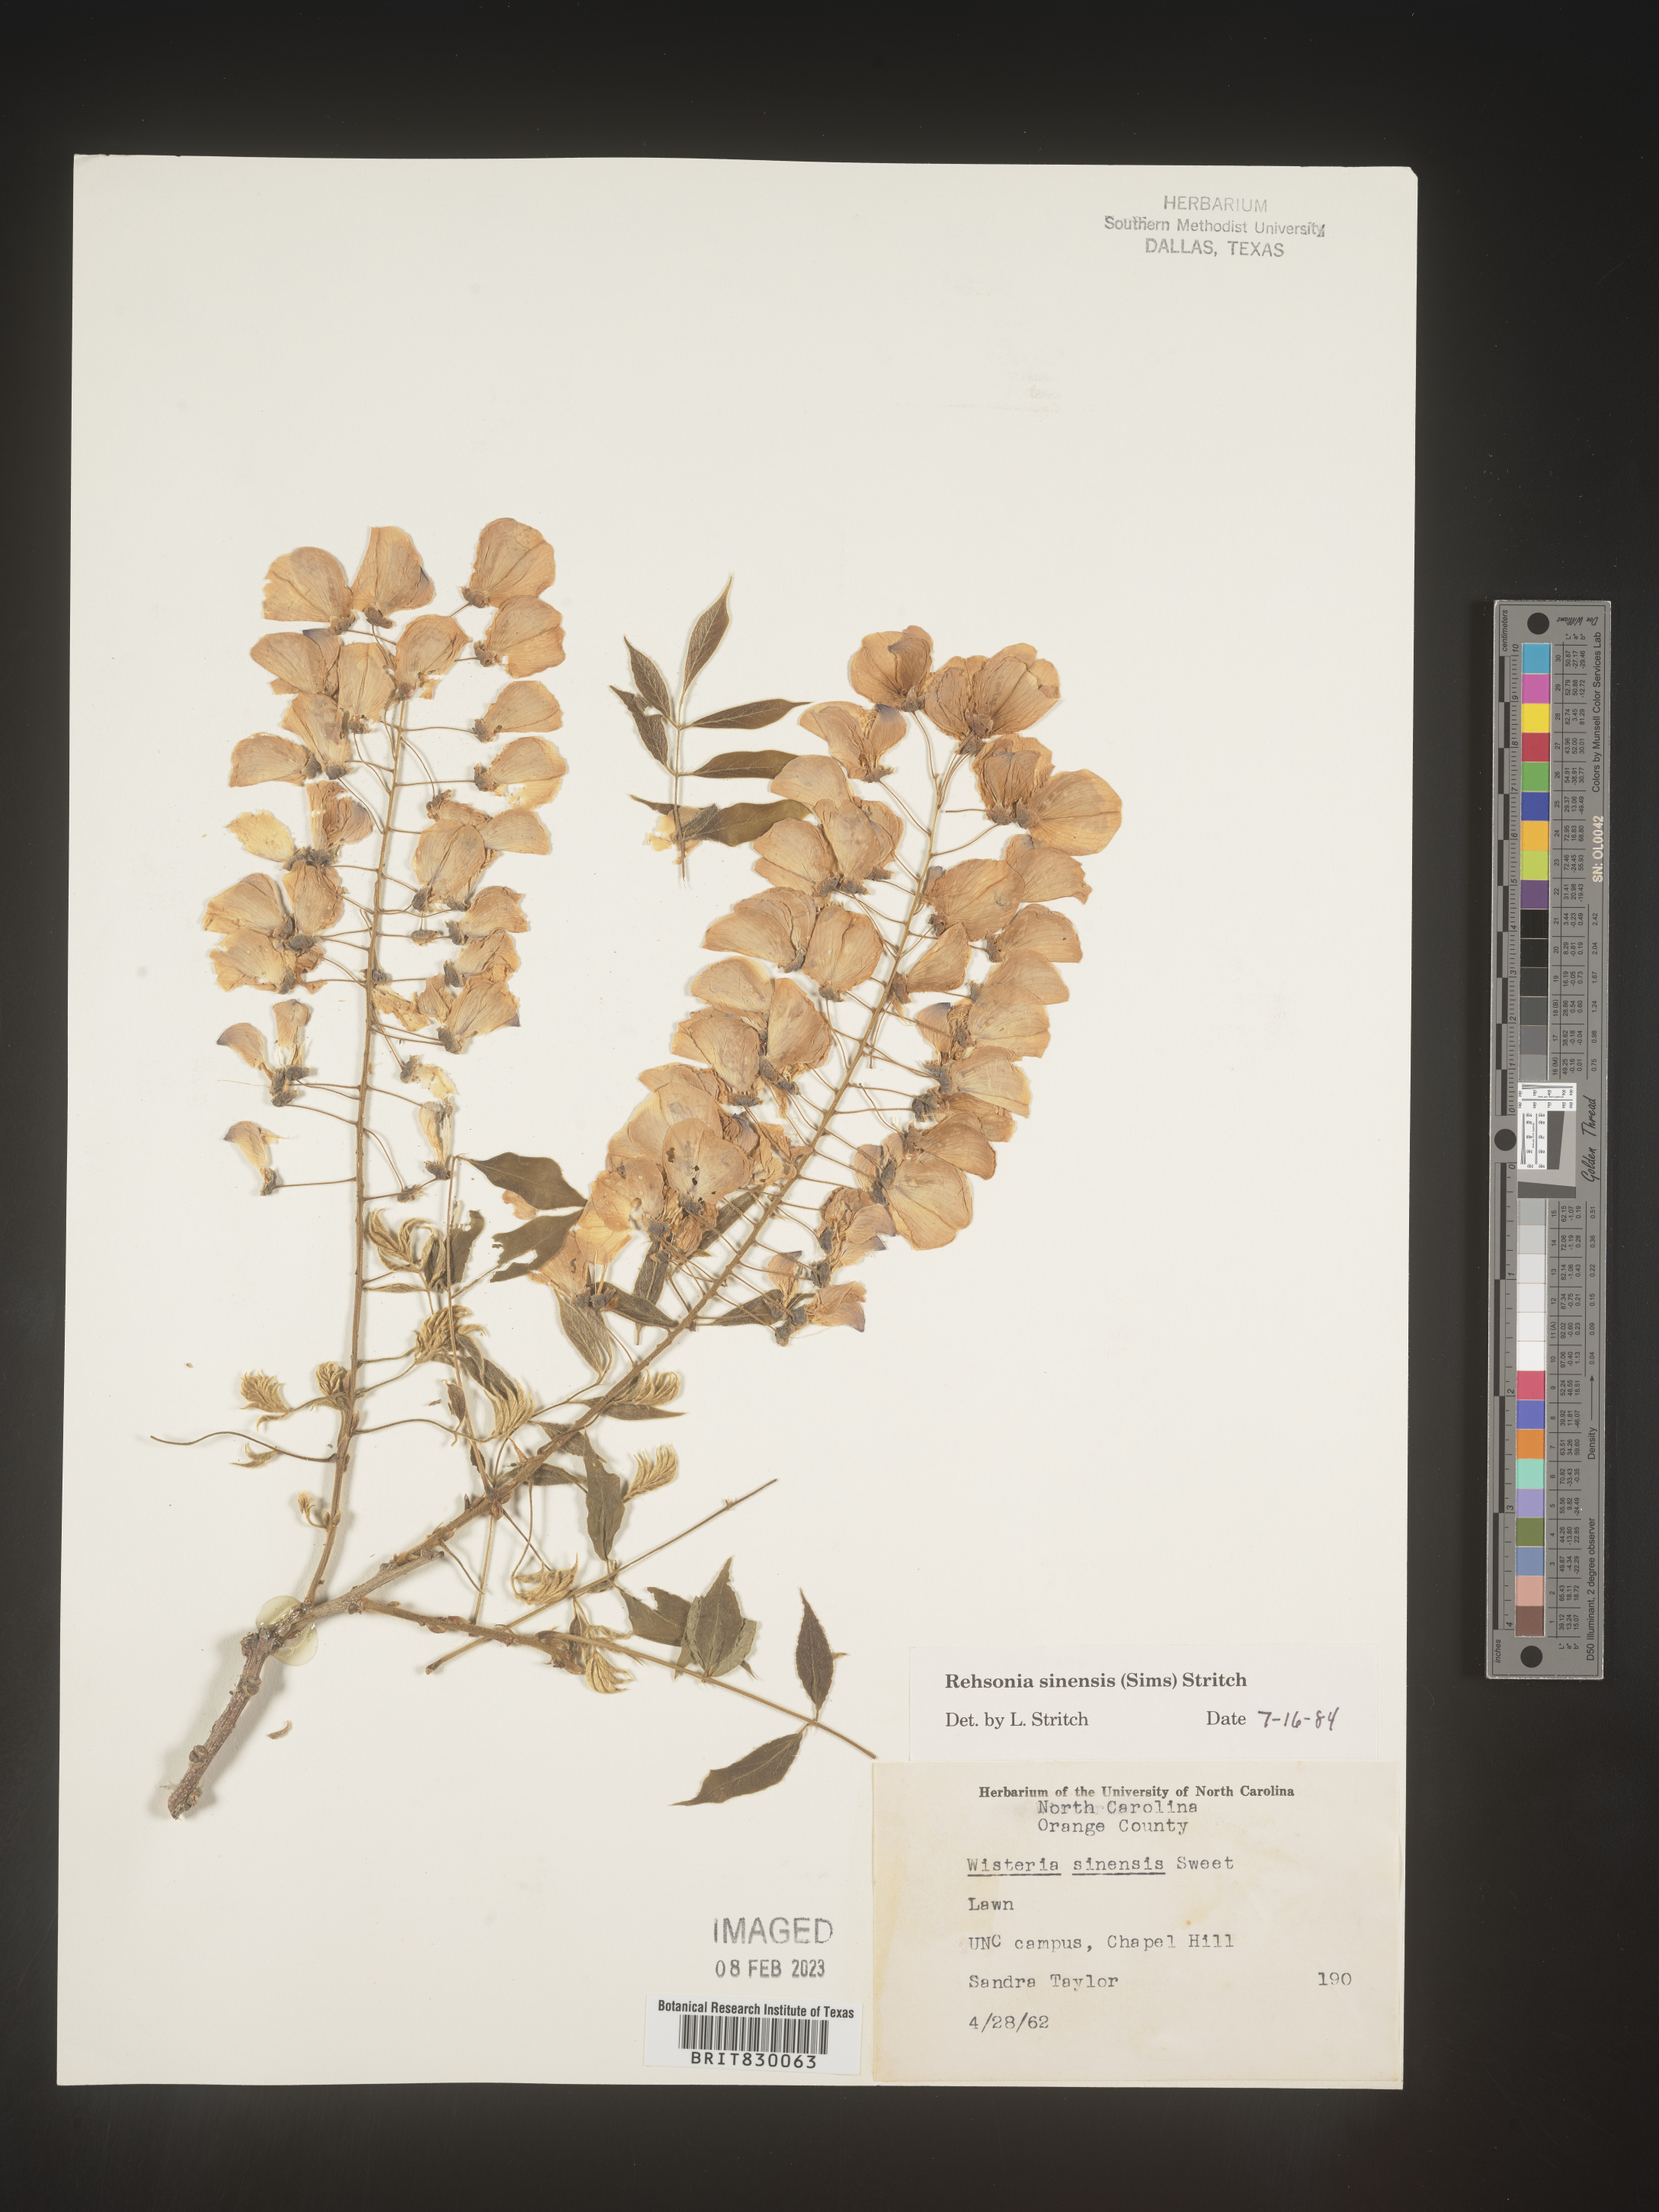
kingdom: Plantae
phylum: Tracheophyta
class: Magnoliopsida
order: Fabales
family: Fabaceae
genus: Wisteria
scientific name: Wisteria
